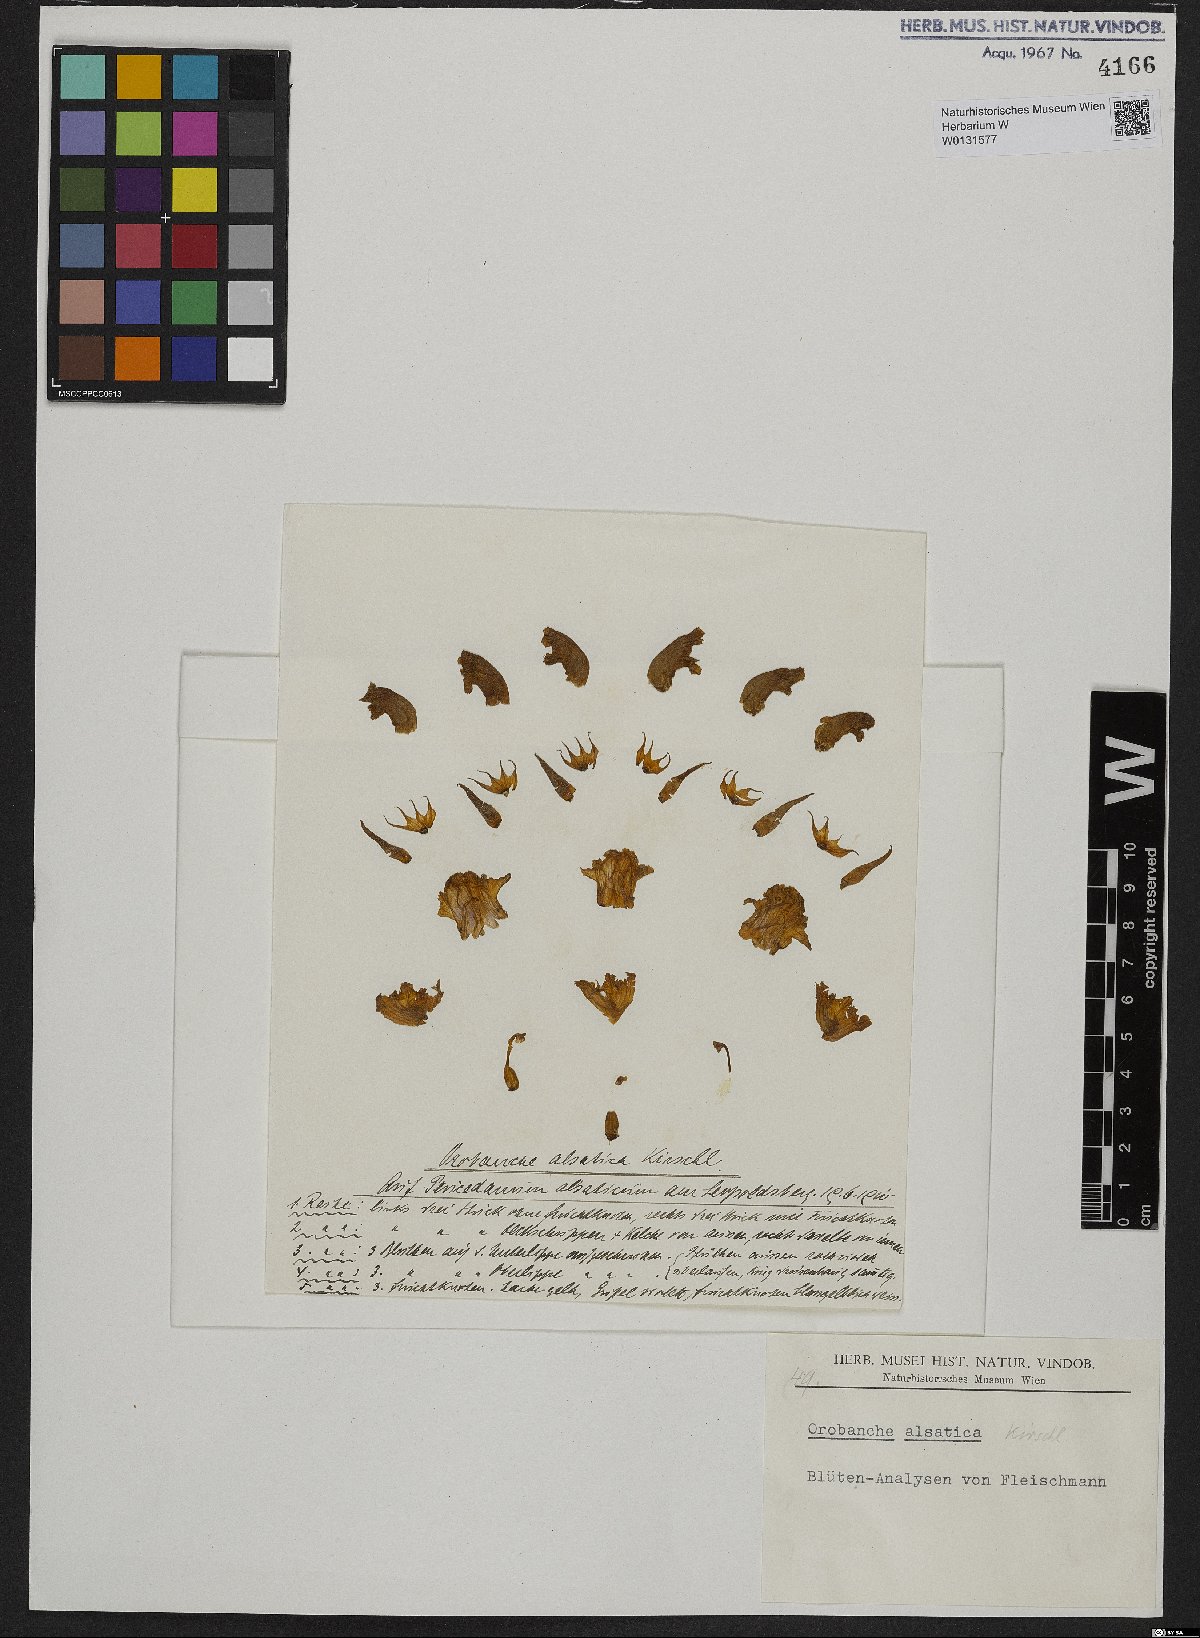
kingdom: Plantae
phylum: Tracheophyta
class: Magnoliopsida
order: Lamiales
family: Orobanchaceae
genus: Orobanche
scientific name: Orobanche alsatica
